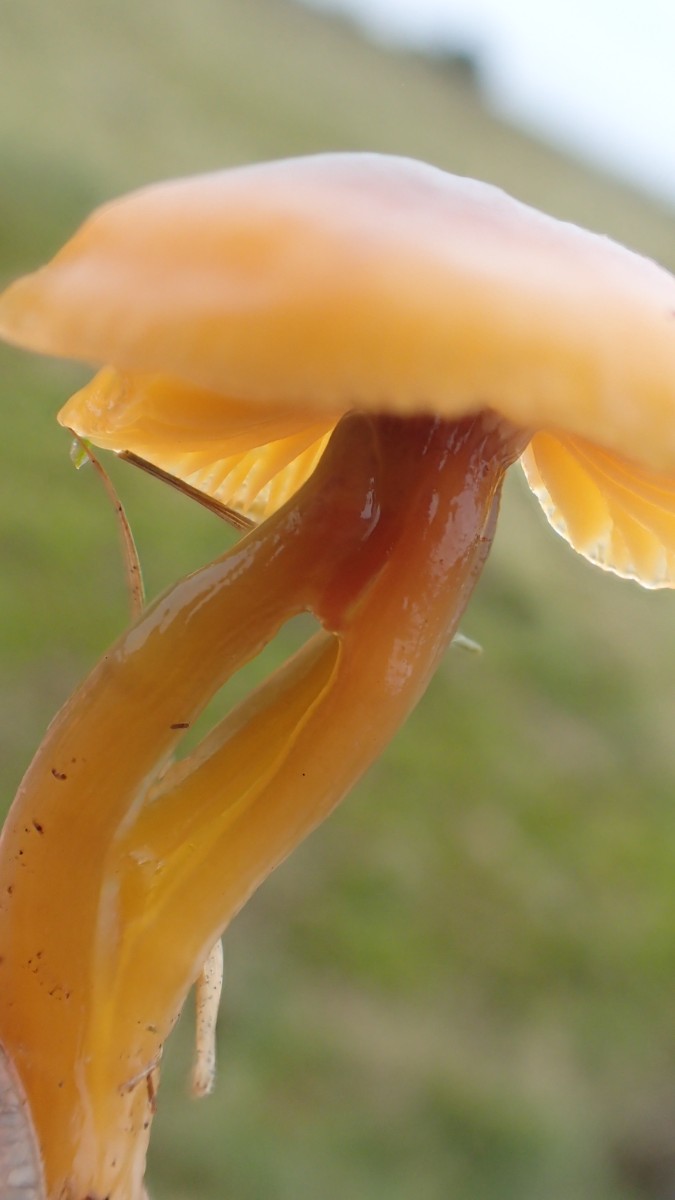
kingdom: Fungi
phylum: Basidiomycota
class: Agaricomycetes
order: Agaricales
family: Hygrophoraceae
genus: Gliophorus
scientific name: Gliophorus laetus
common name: brusk-vokshat
